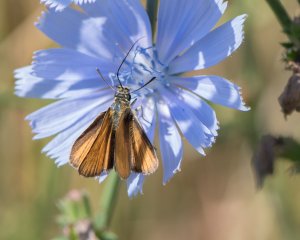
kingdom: Animalia
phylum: Arthropoda
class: Insecta
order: Lepidoptera
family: Hesperiidae
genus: Ancyloxypha
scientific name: Ancyloxypha numitor
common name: Least Skipper
